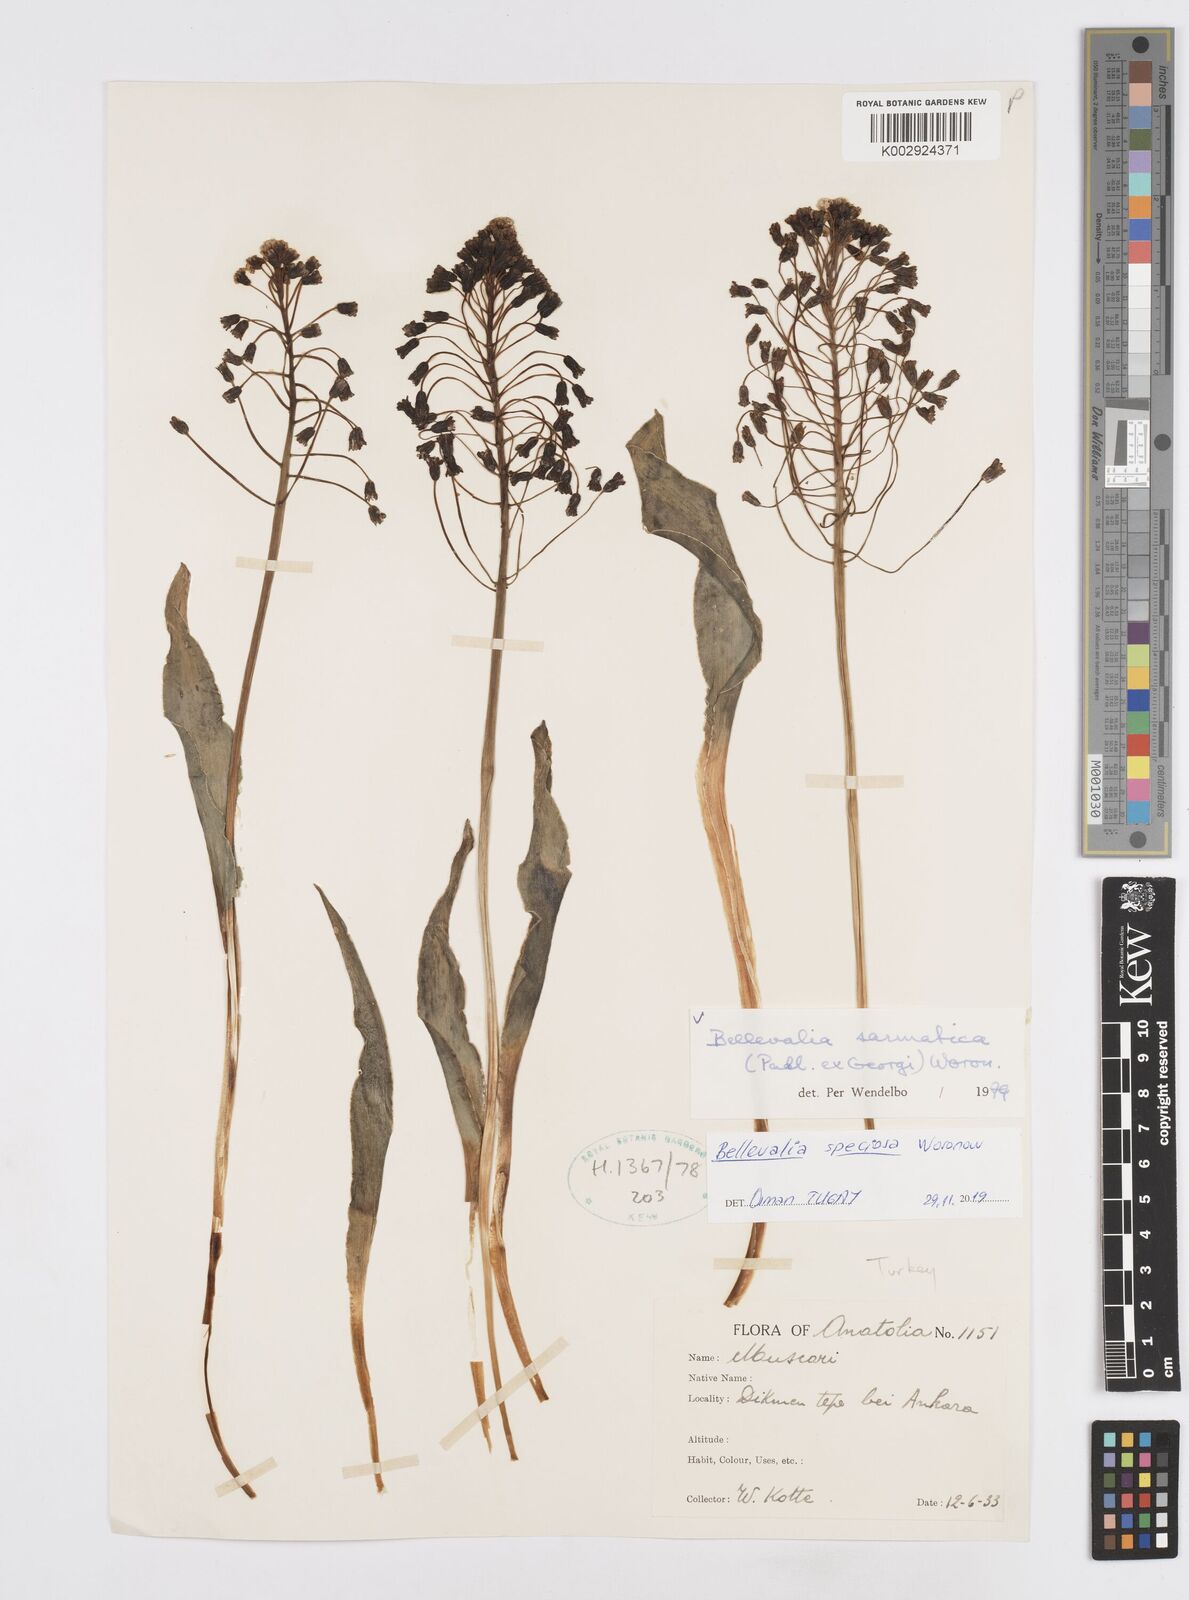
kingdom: Plantae
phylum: Tracheophyta
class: Liliopsida
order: Asparagales
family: Asparagaceae
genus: Bellevalia
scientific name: Bellevalia speciosa
